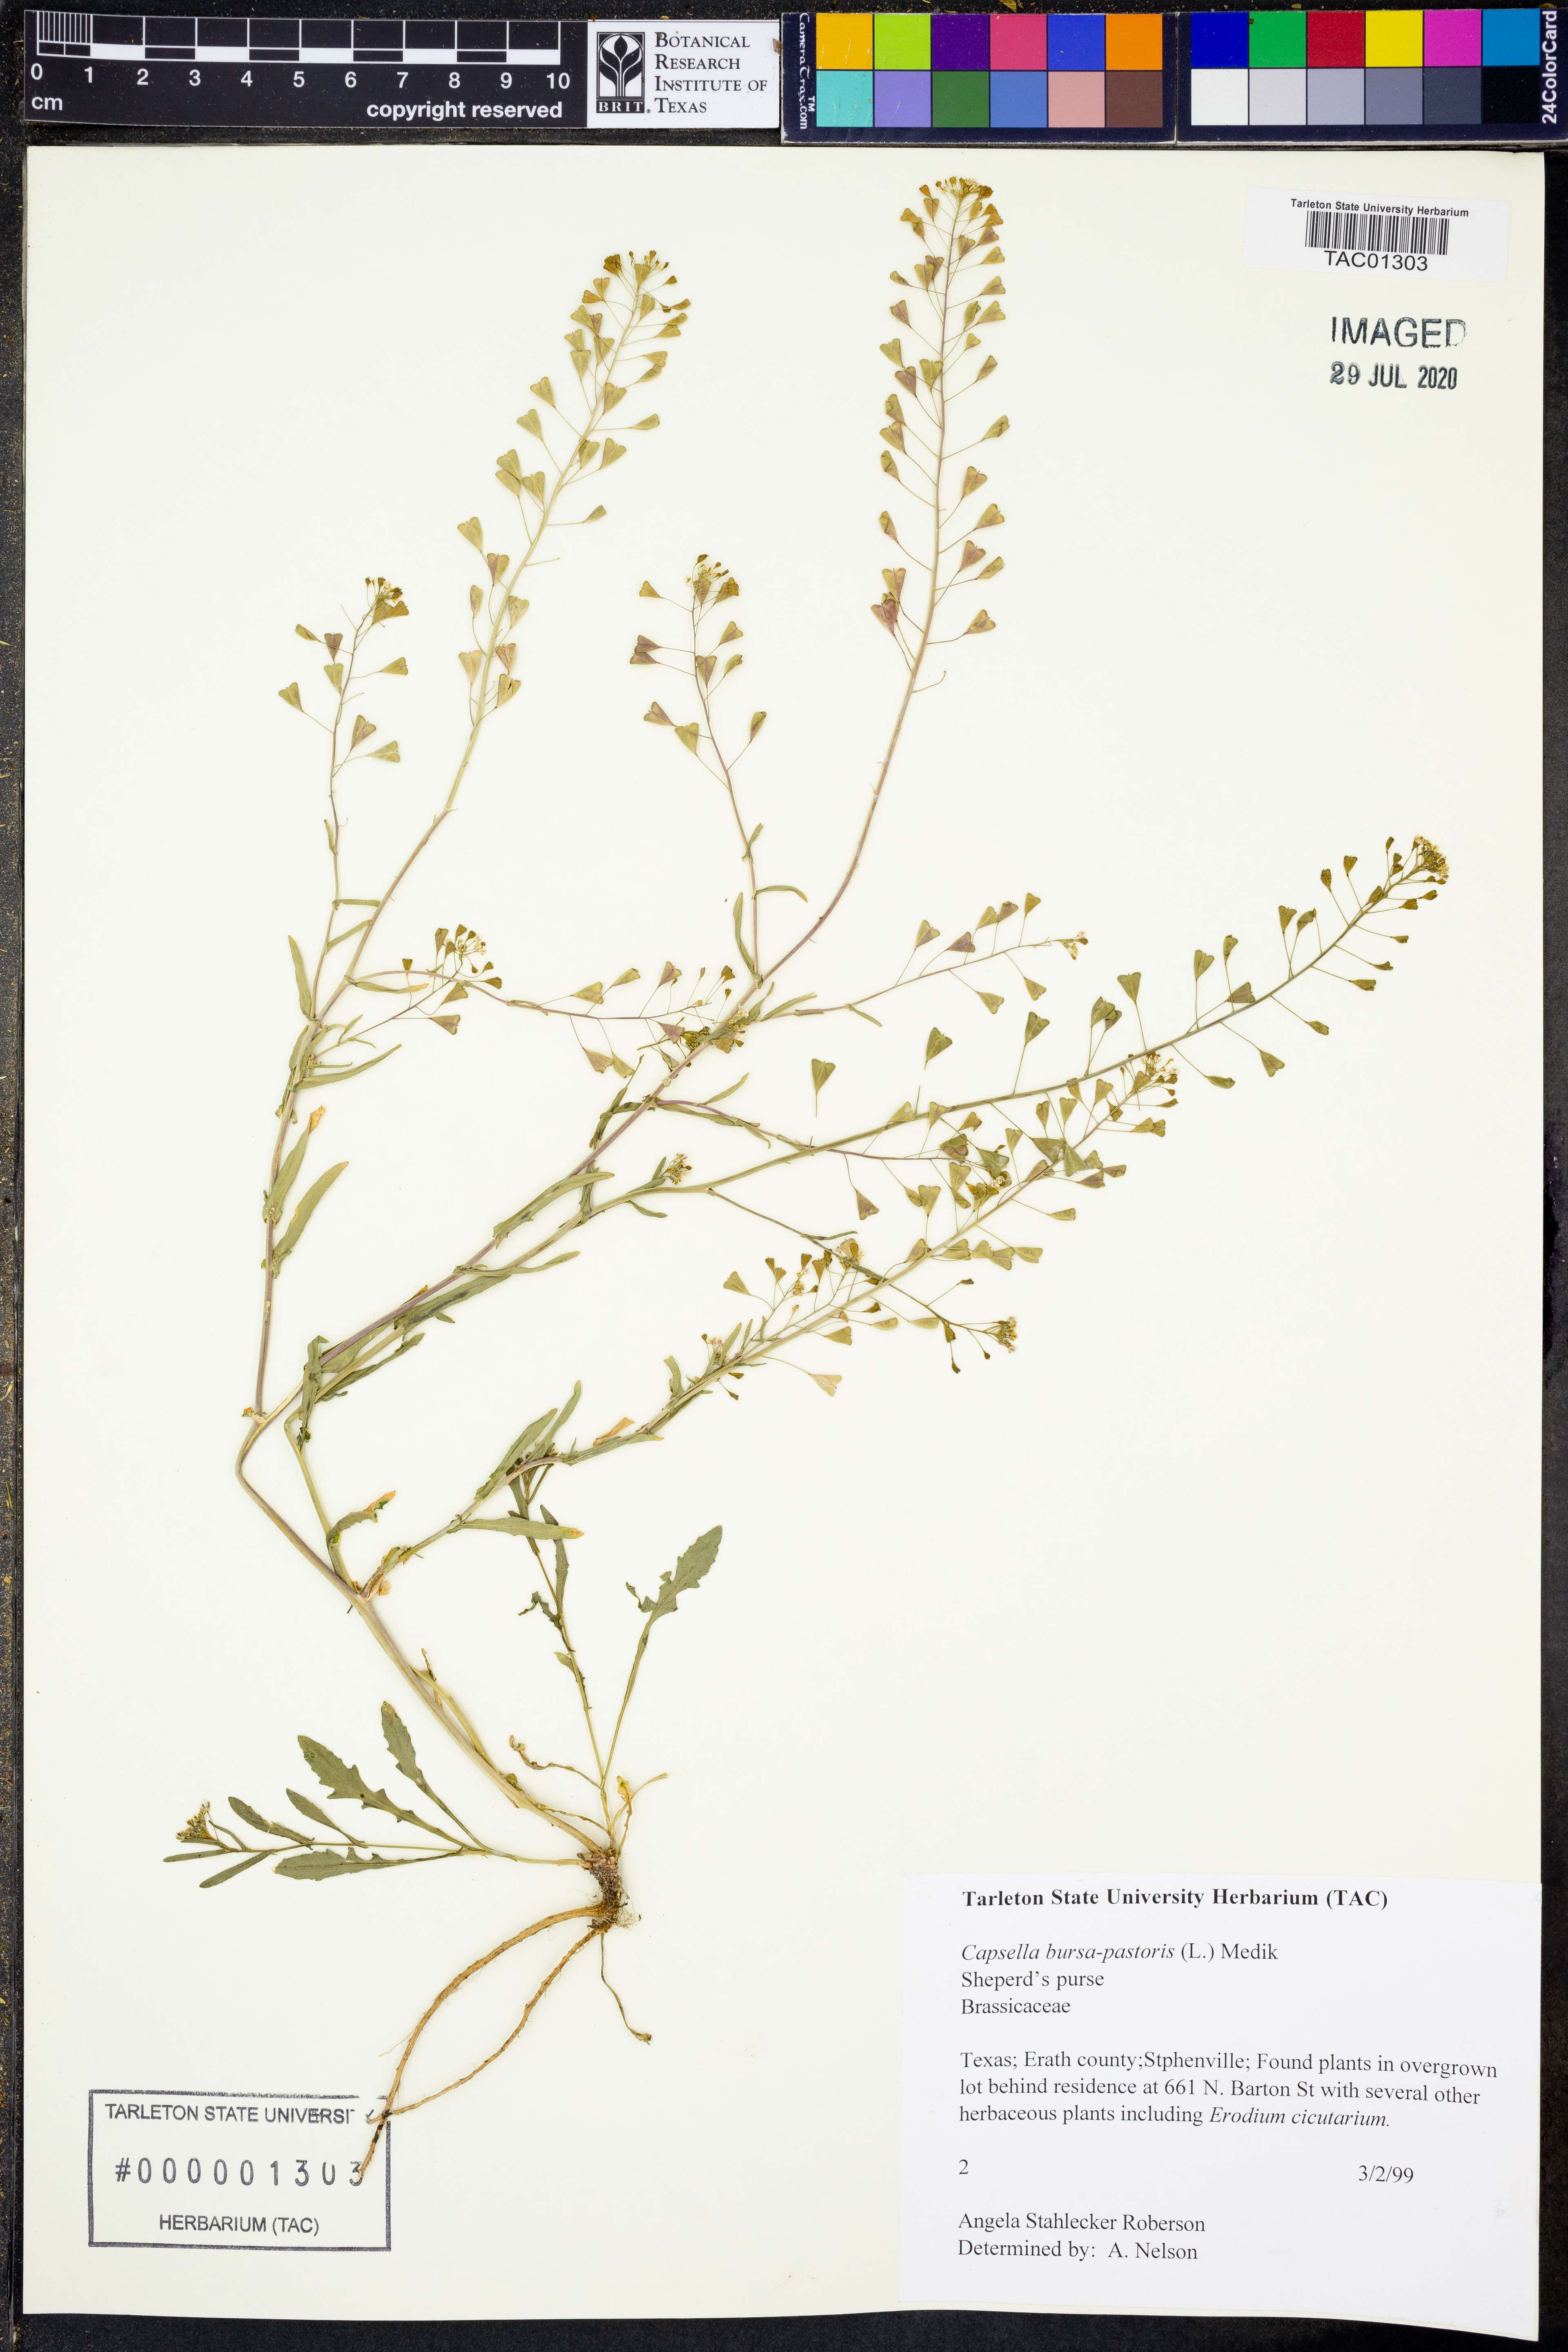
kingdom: Plantae
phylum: Tracheophyta
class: Magnoliopsida
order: Brassicales
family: Brassicaceae
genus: Capsella
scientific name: Capsella bursa-pastoris
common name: Shepherd's purse
